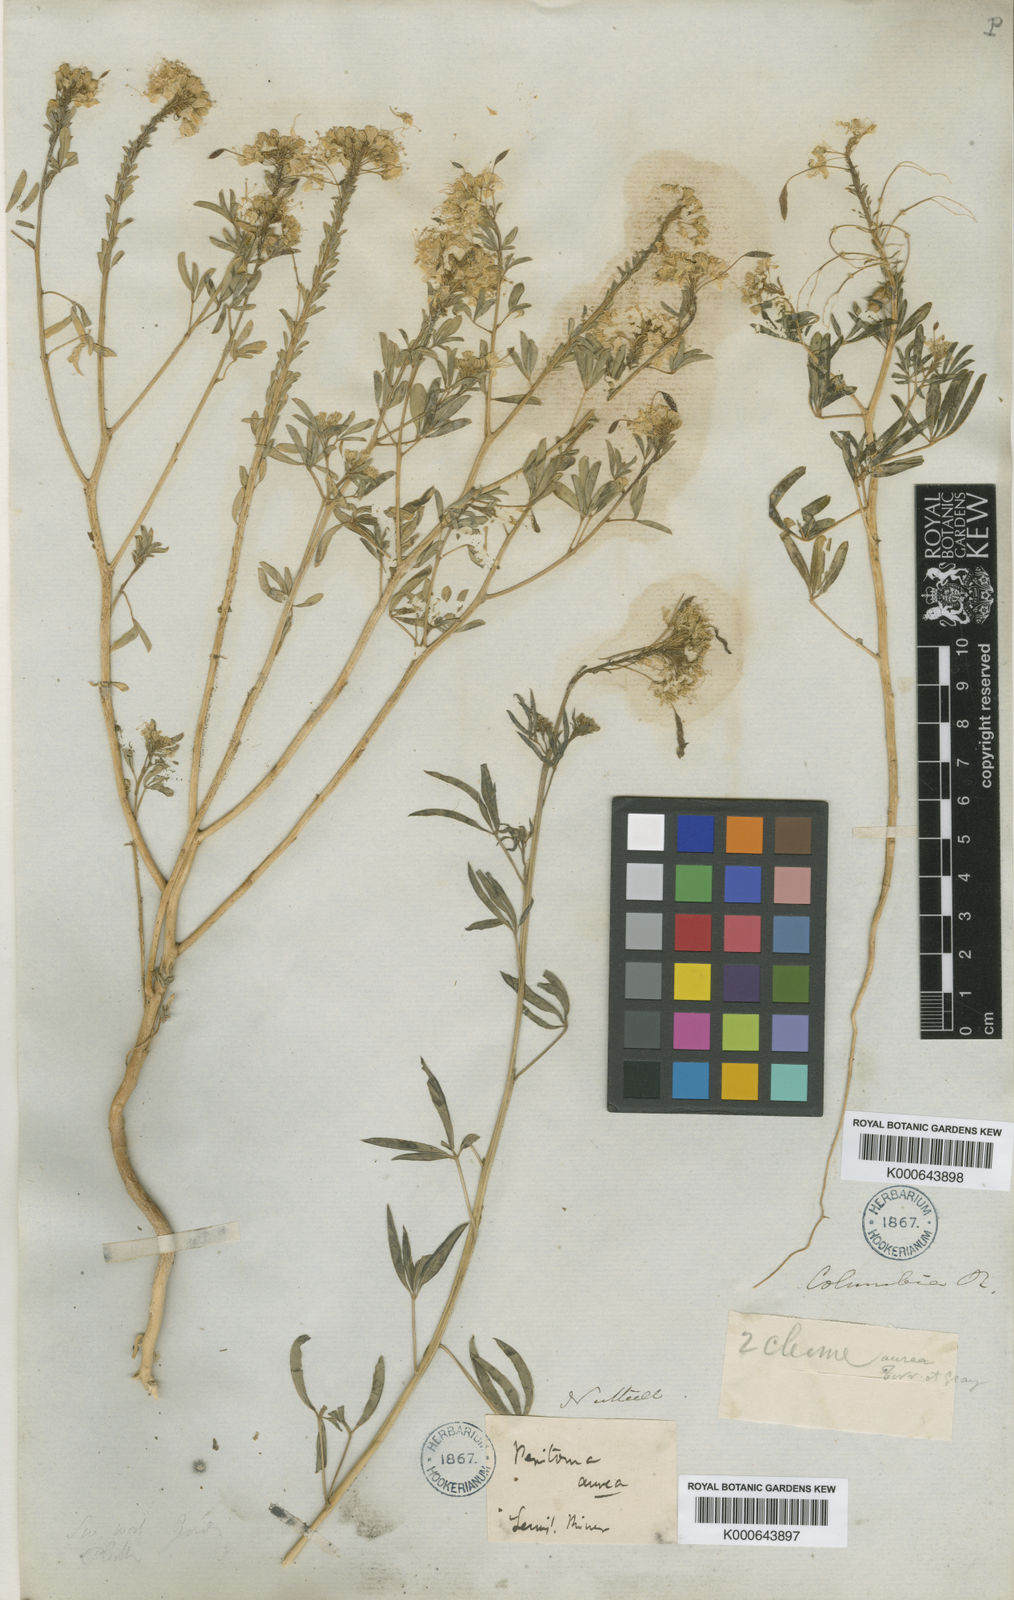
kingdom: Plantae
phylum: Tracheophyta
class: Magnoliopsida
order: Brassicales
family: Cleomaceae
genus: Cleomella
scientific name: Cleomella lutea
